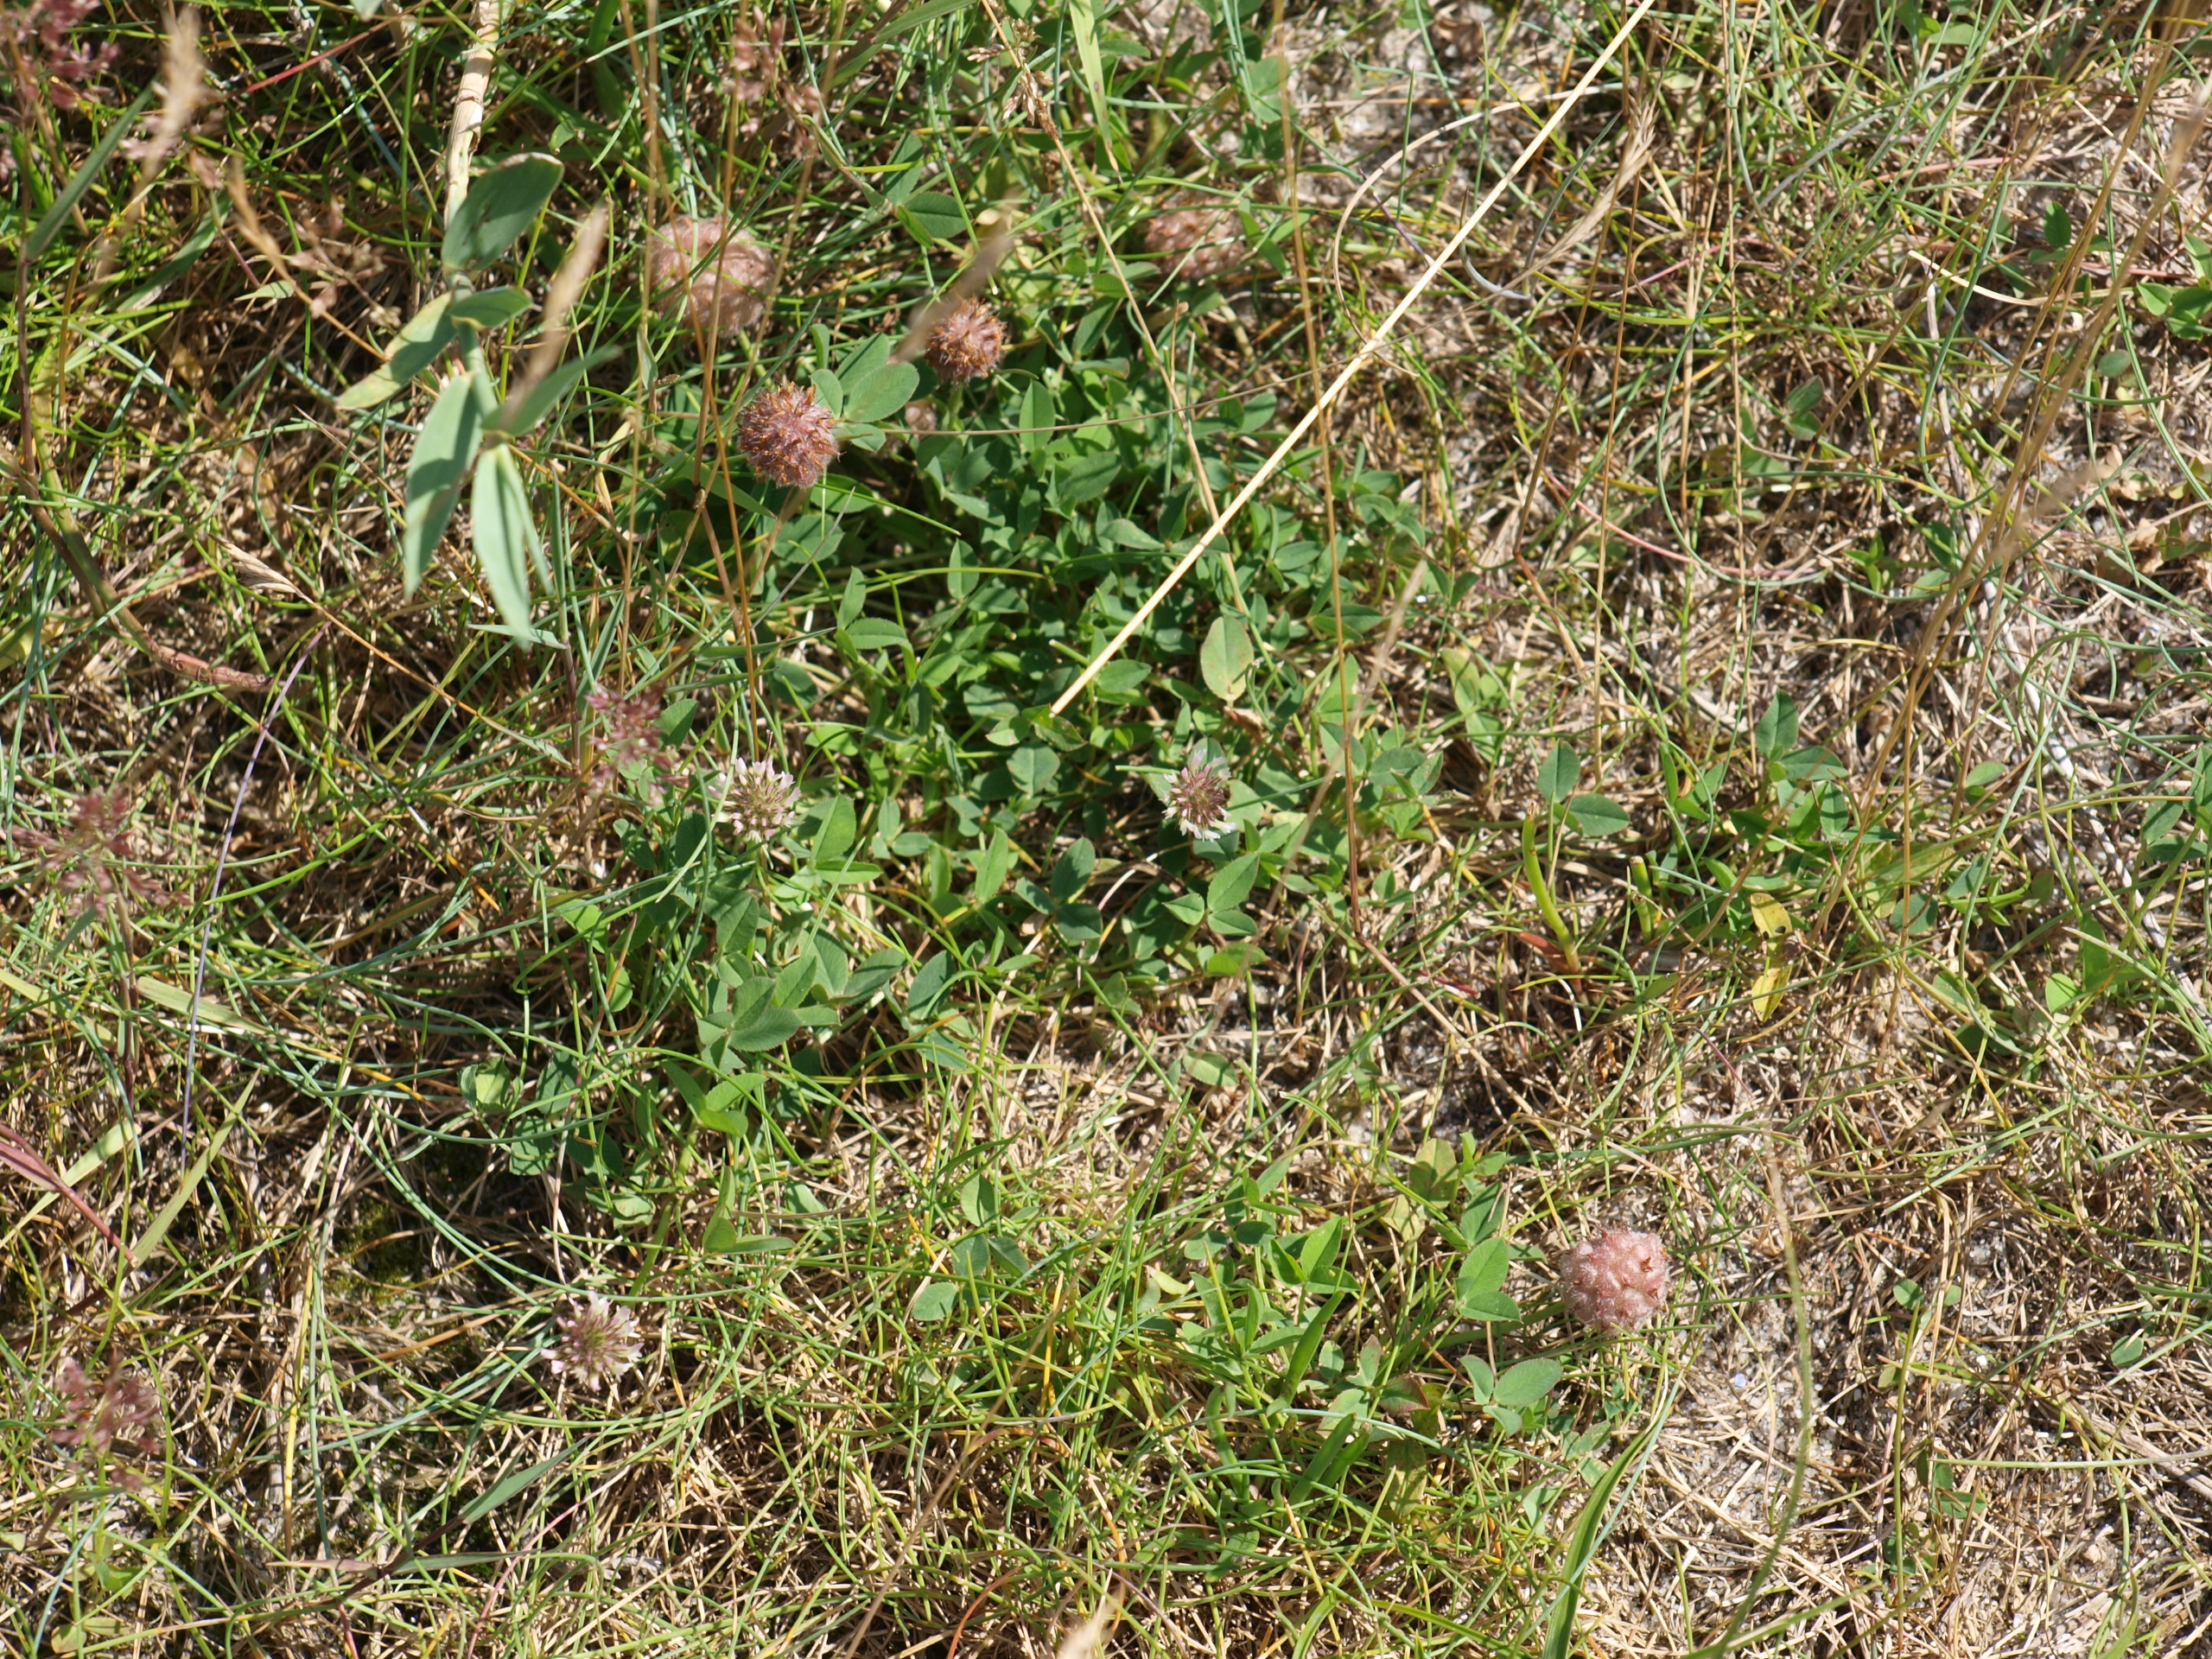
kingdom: Plantae
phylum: Tracheophyta
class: Magnoliopsida
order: Fabales
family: Fabaceae
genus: Trifolium
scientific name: Trifolium fragiferum
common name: Jordbær-kløver
